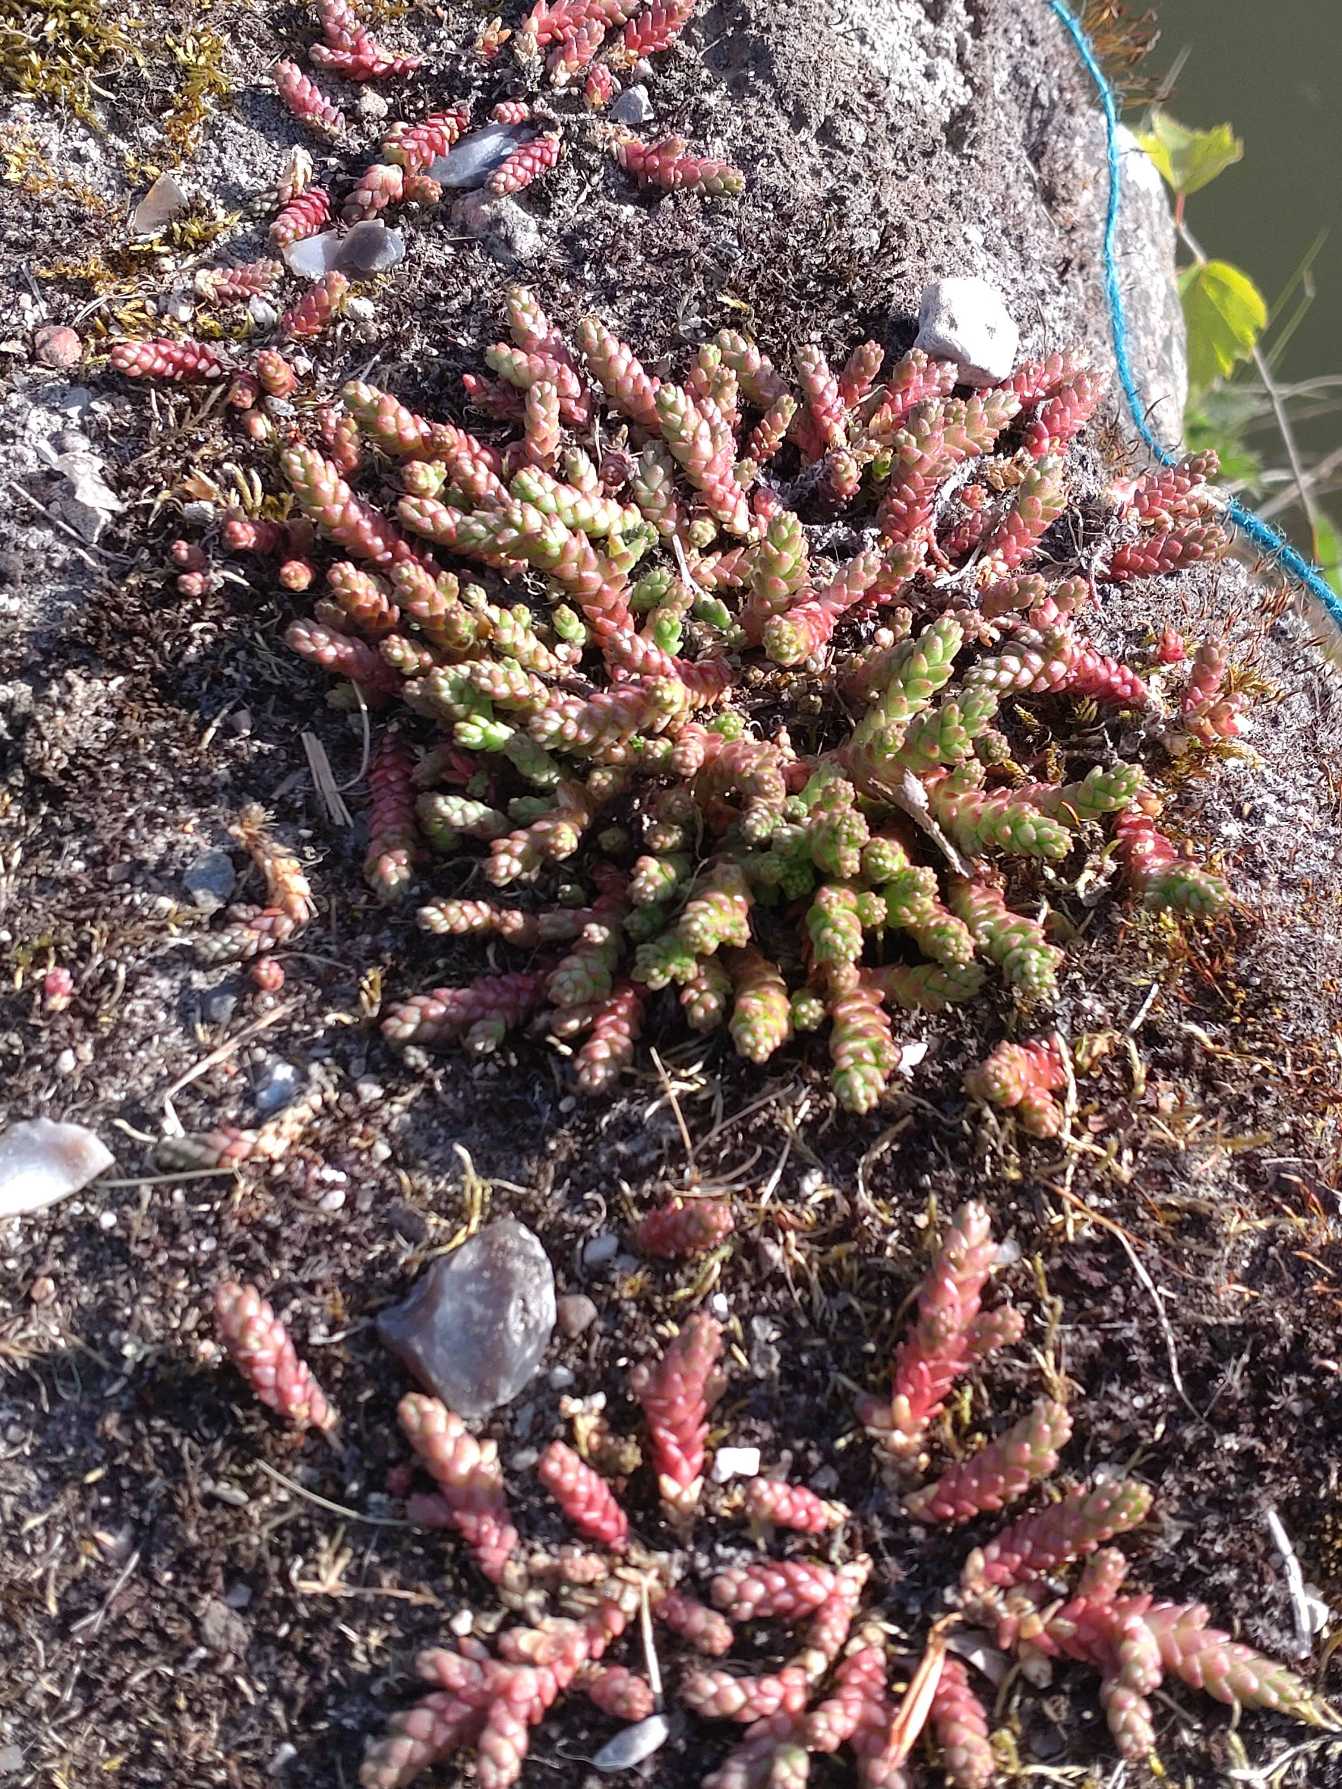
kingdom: Plantae
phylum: Tracheophyta
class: Magnoliopsida
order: Saxifragales
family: Crassulaceae
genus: Sedum
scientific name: Sedum acre
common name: Bidende stenurt
